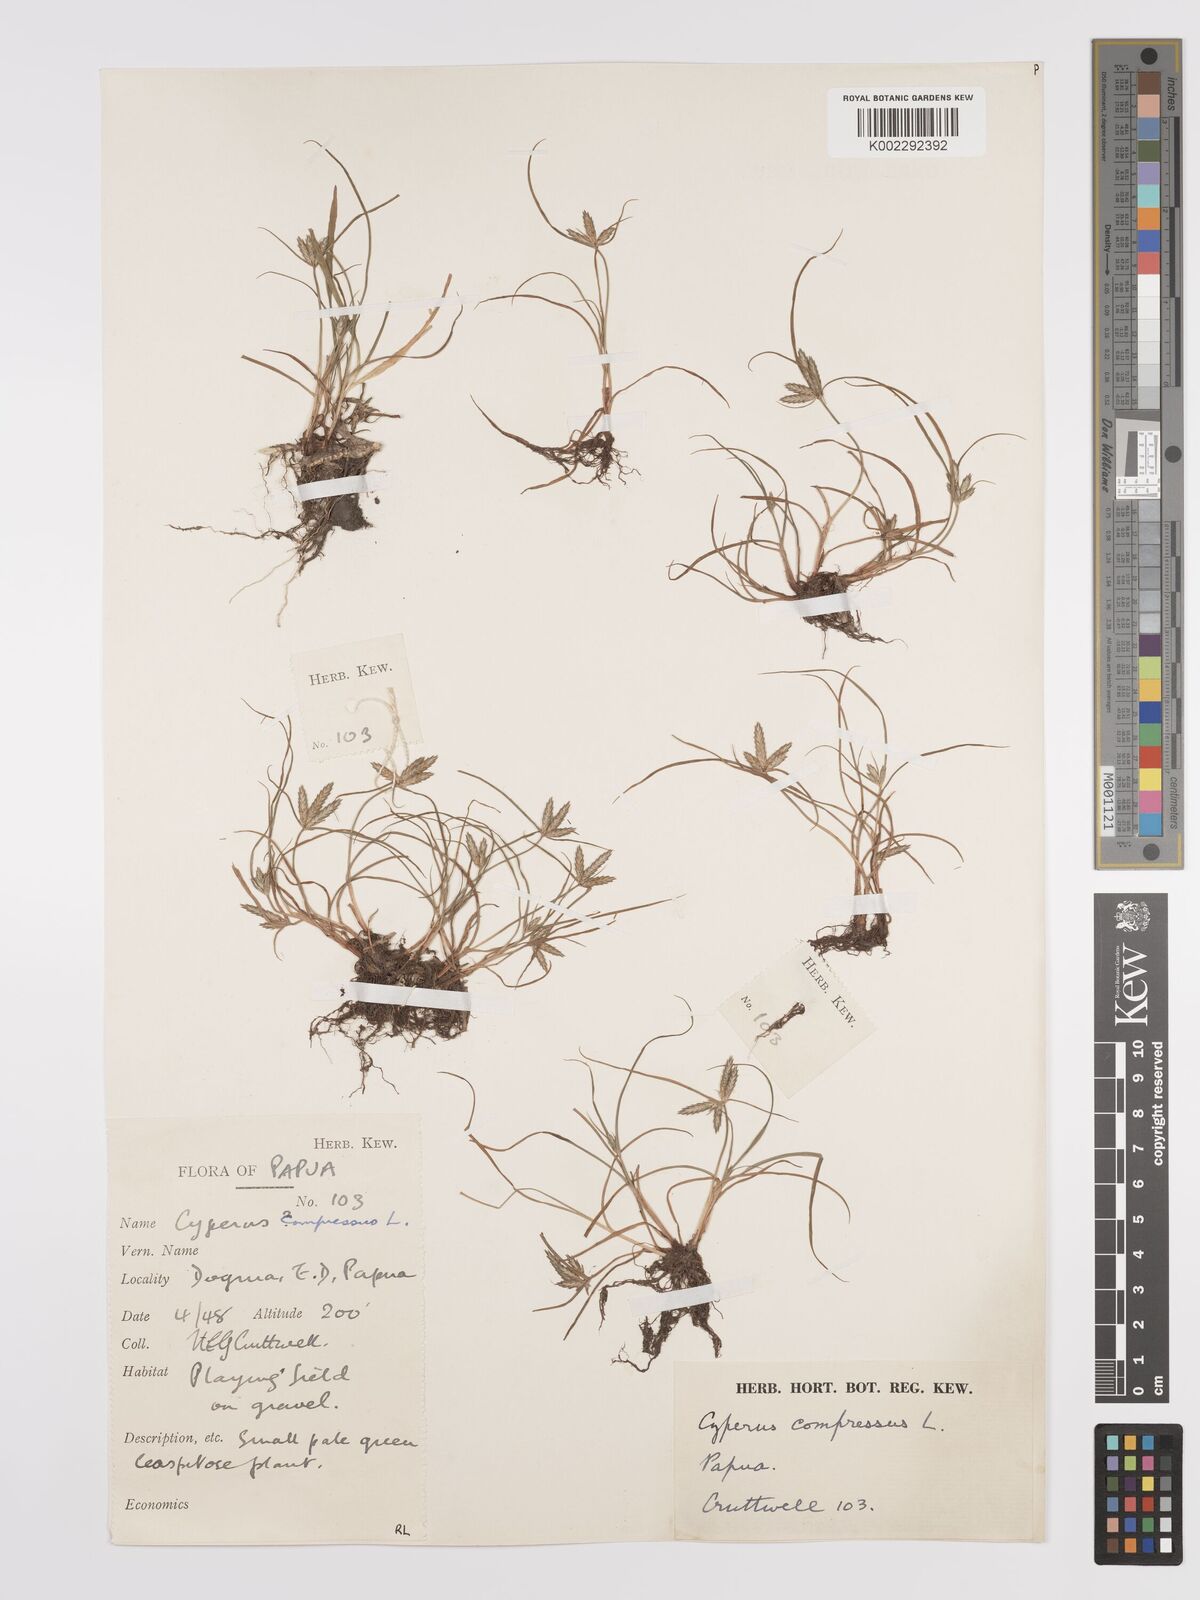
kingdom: Plantae
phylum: Tracheophyta
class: Liliopsida
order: Poales
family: Cyperaceae
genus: Cyperus
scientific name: Cyperus compressus
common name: Poorland flatsedge
